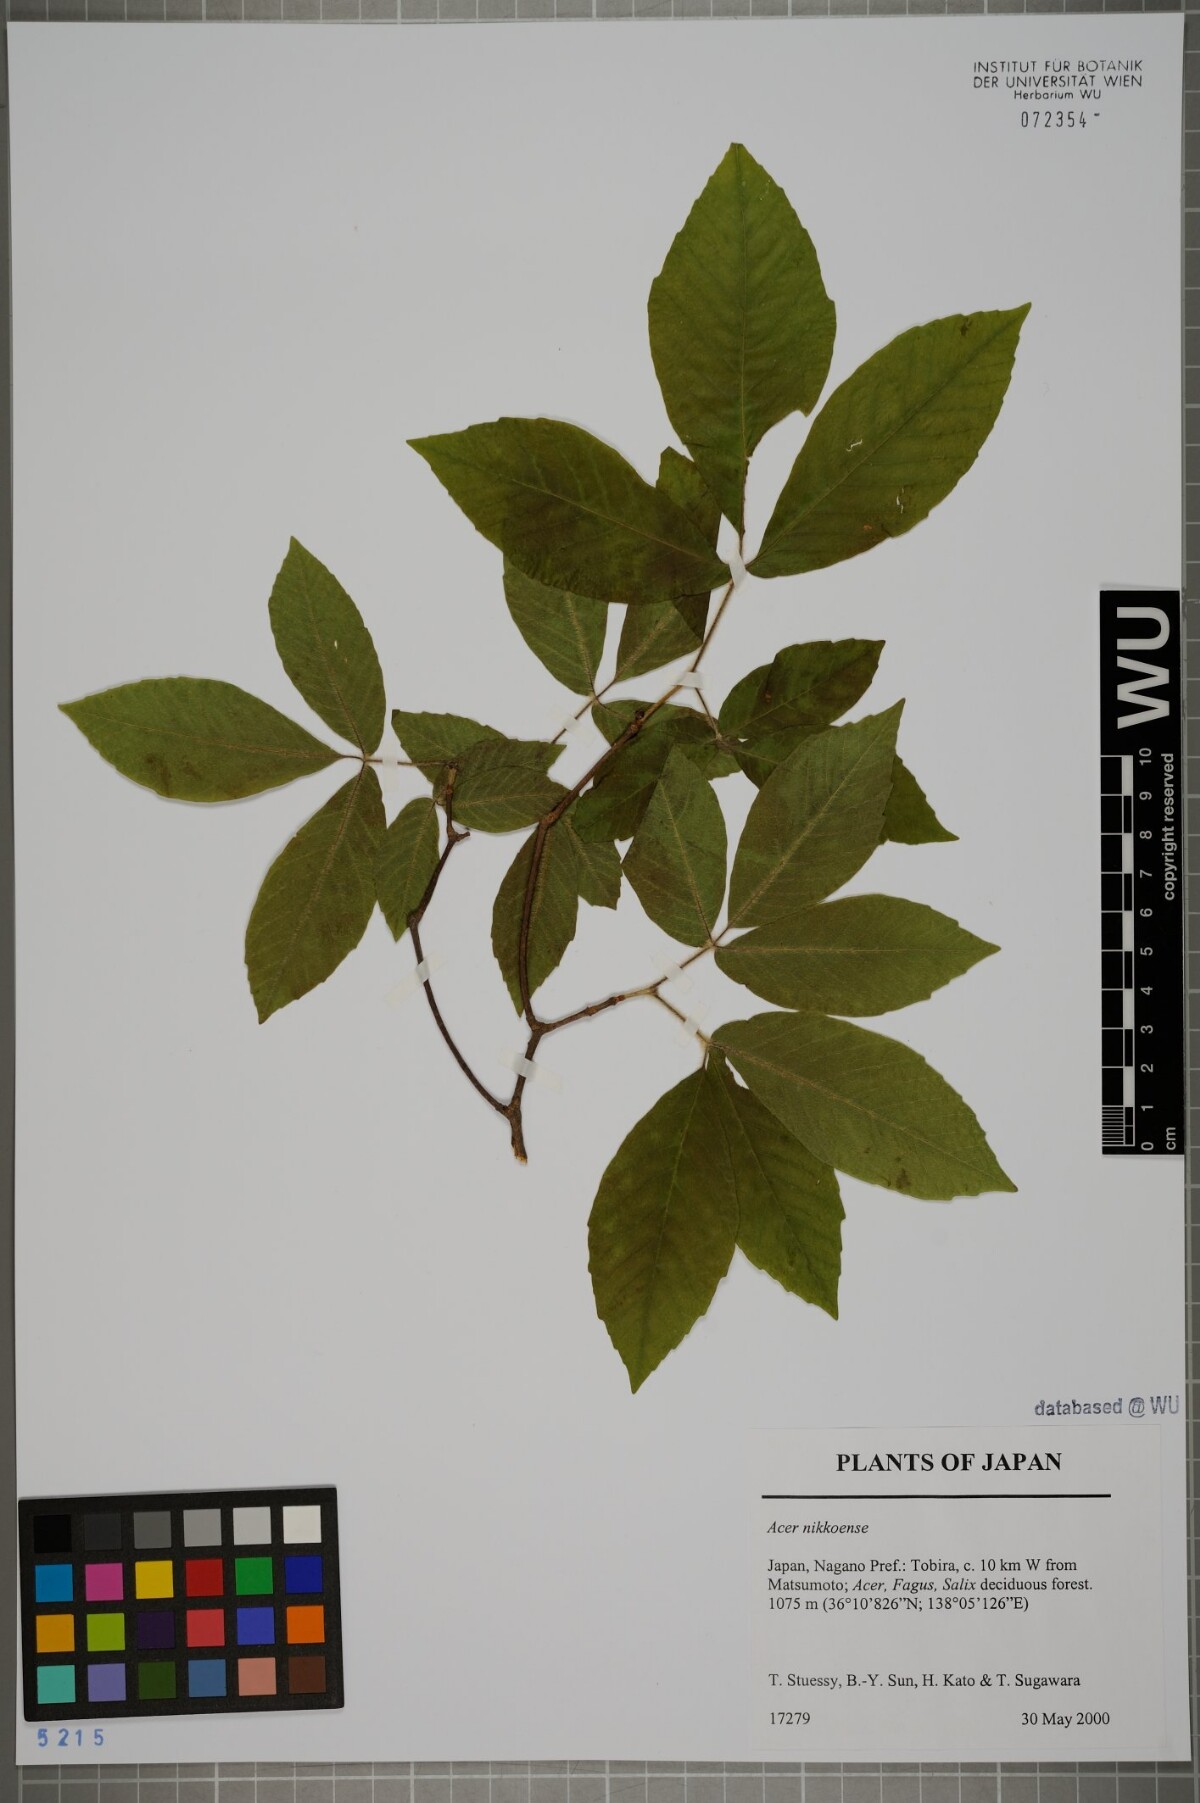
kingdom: Plantae
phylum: Tracheophyta
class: Magnoliopsida
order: Vitales
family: Vitaceae
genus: Parthenocissus
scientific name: Parthenocissus tricuspidata
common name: Boston ivy
